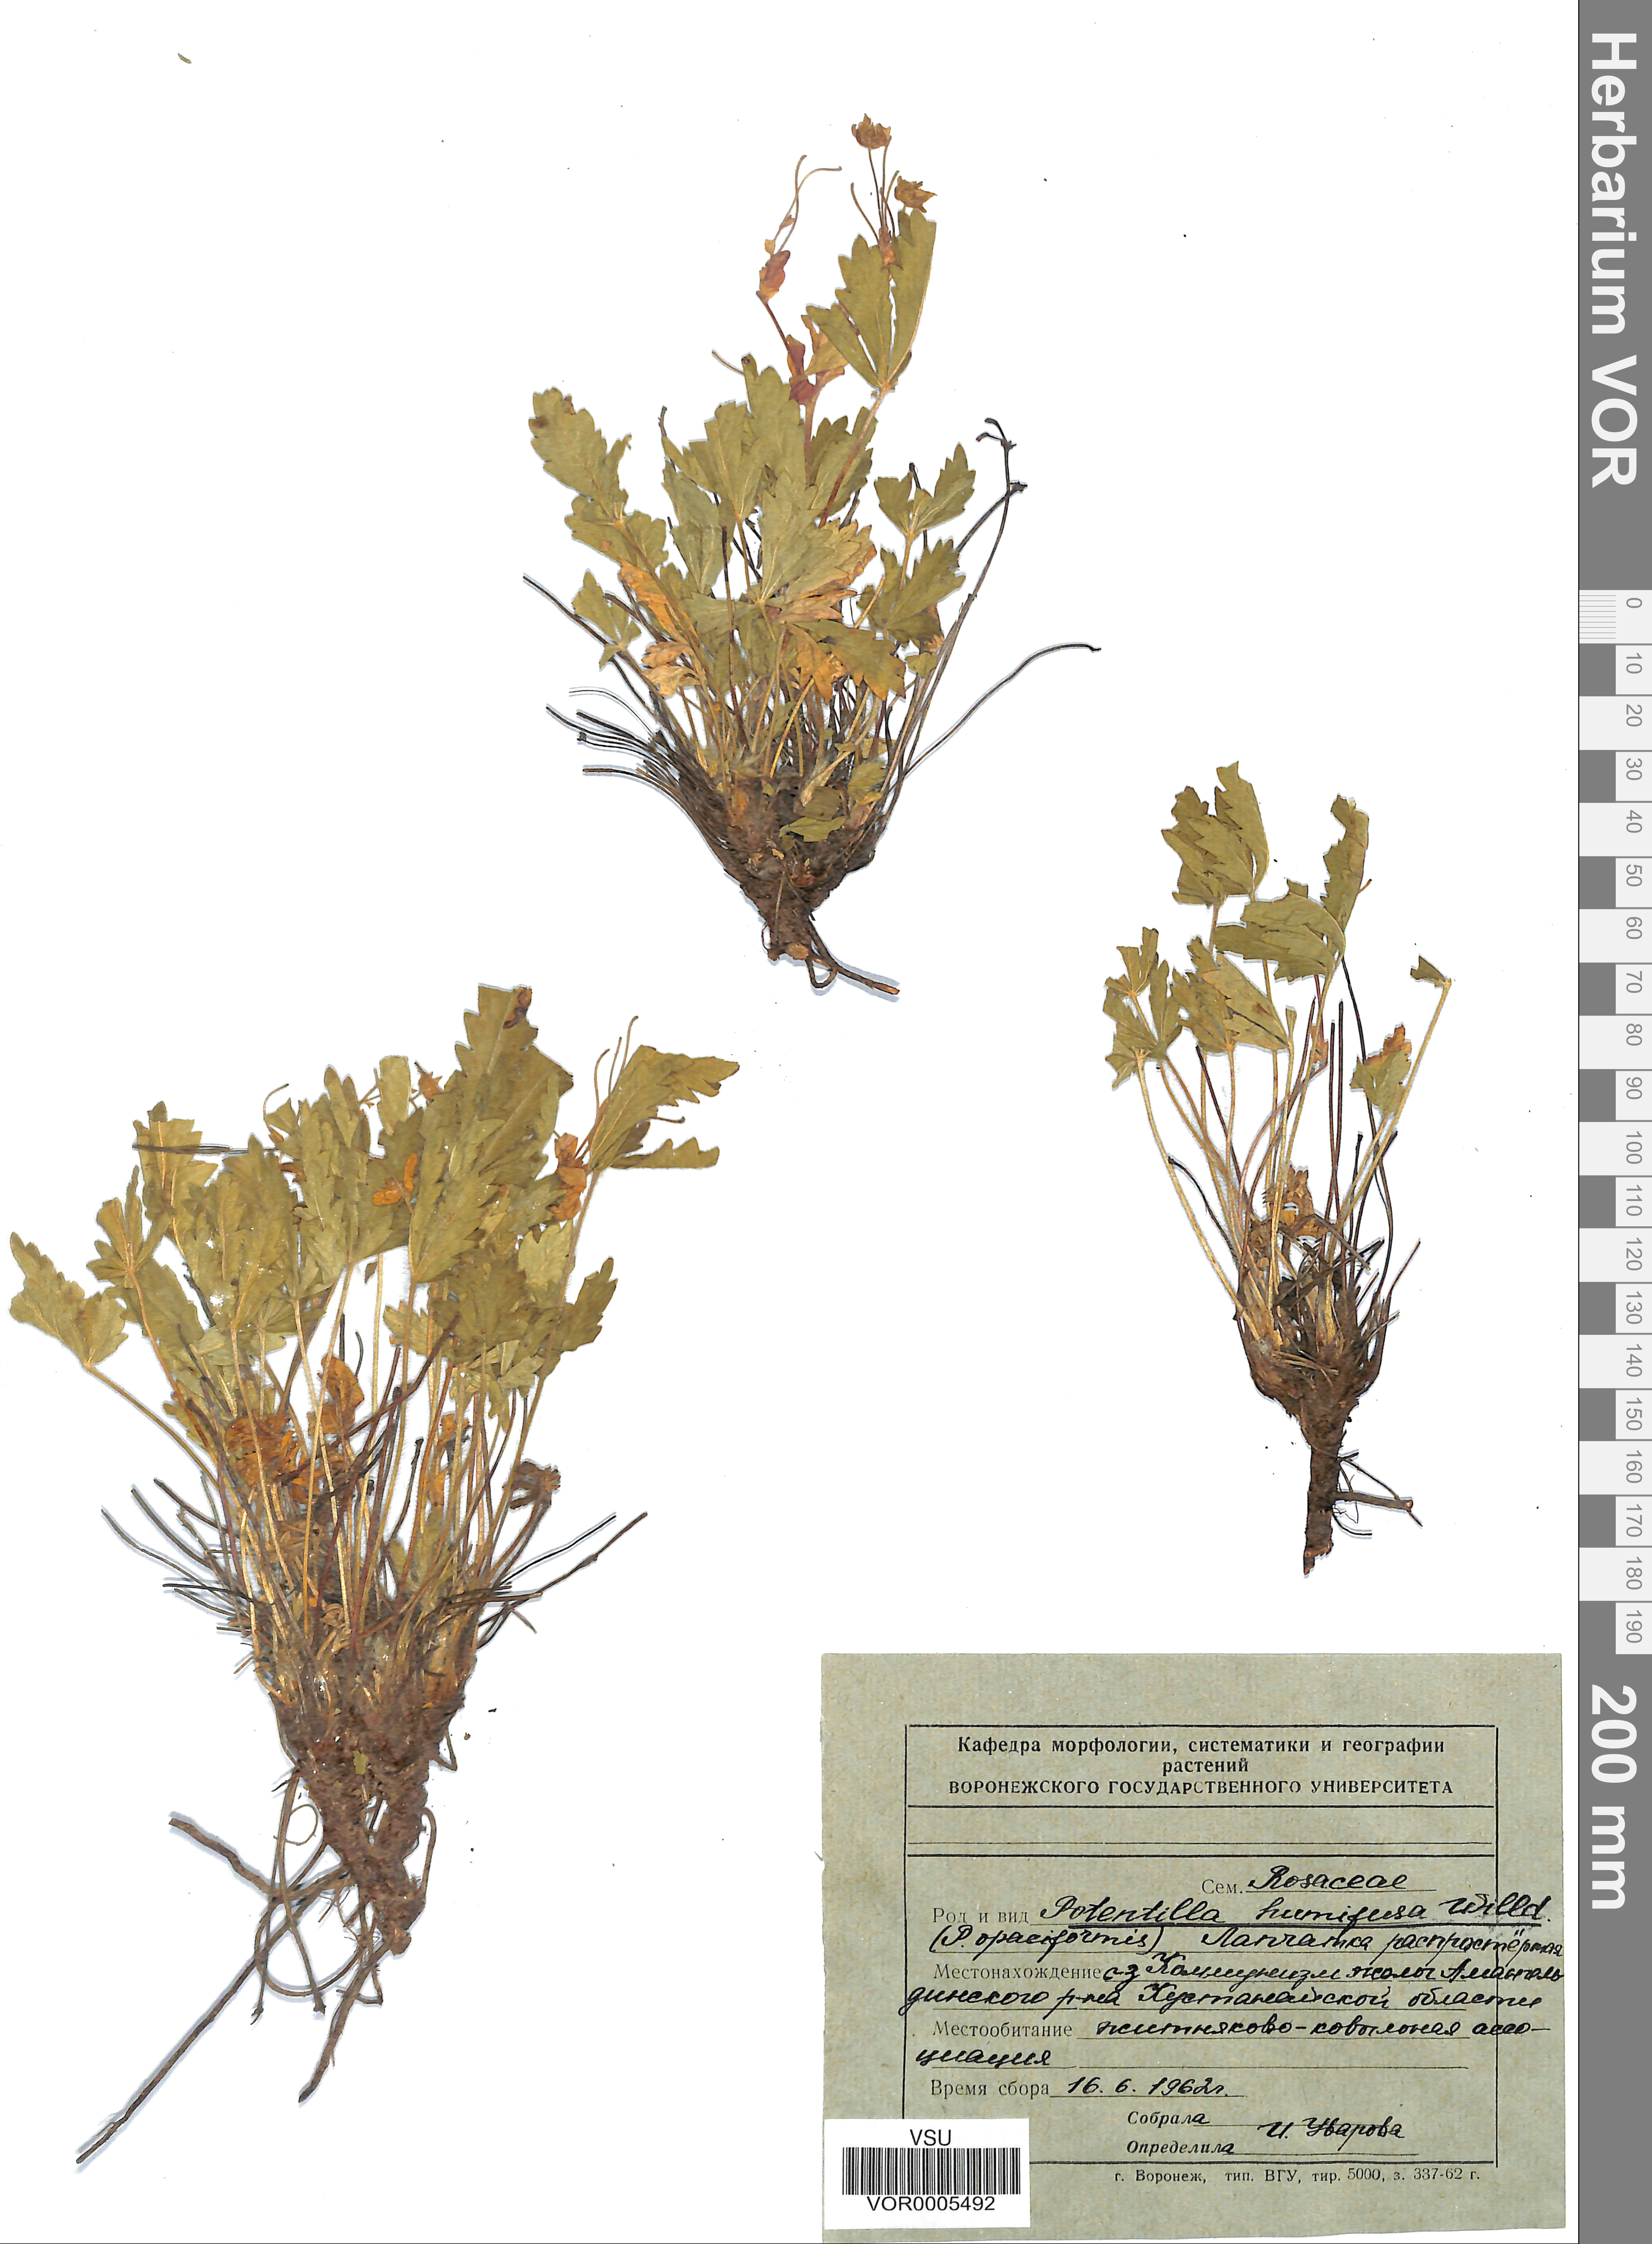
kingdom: Plantae
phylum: Tracheophyta
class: Magnoliopsida
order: Rosales
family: Rosaceae
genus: Potentilla
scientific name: Potentilla humifusa
